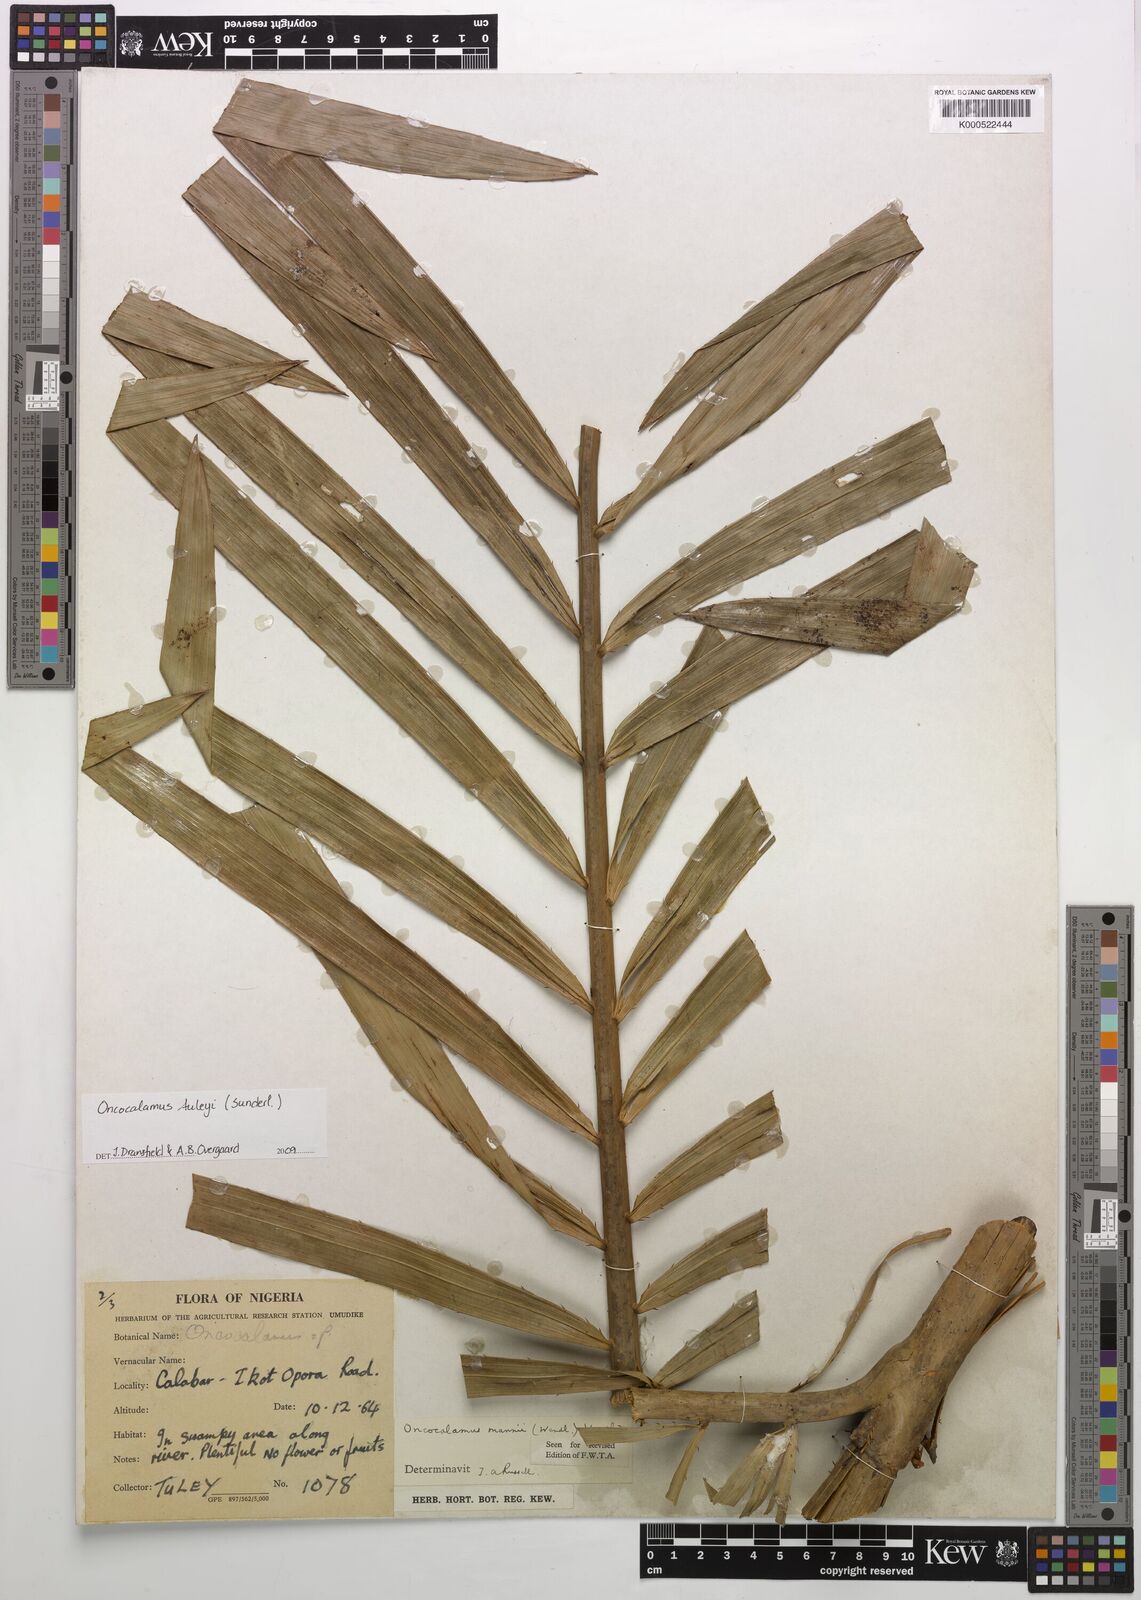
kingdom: Plantae
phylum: Tracheophyta
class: Liliopsida
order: Arecales
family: Arecaceae
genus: Oncocalamus
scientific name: Oncocalamus mannii
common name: Rattan
